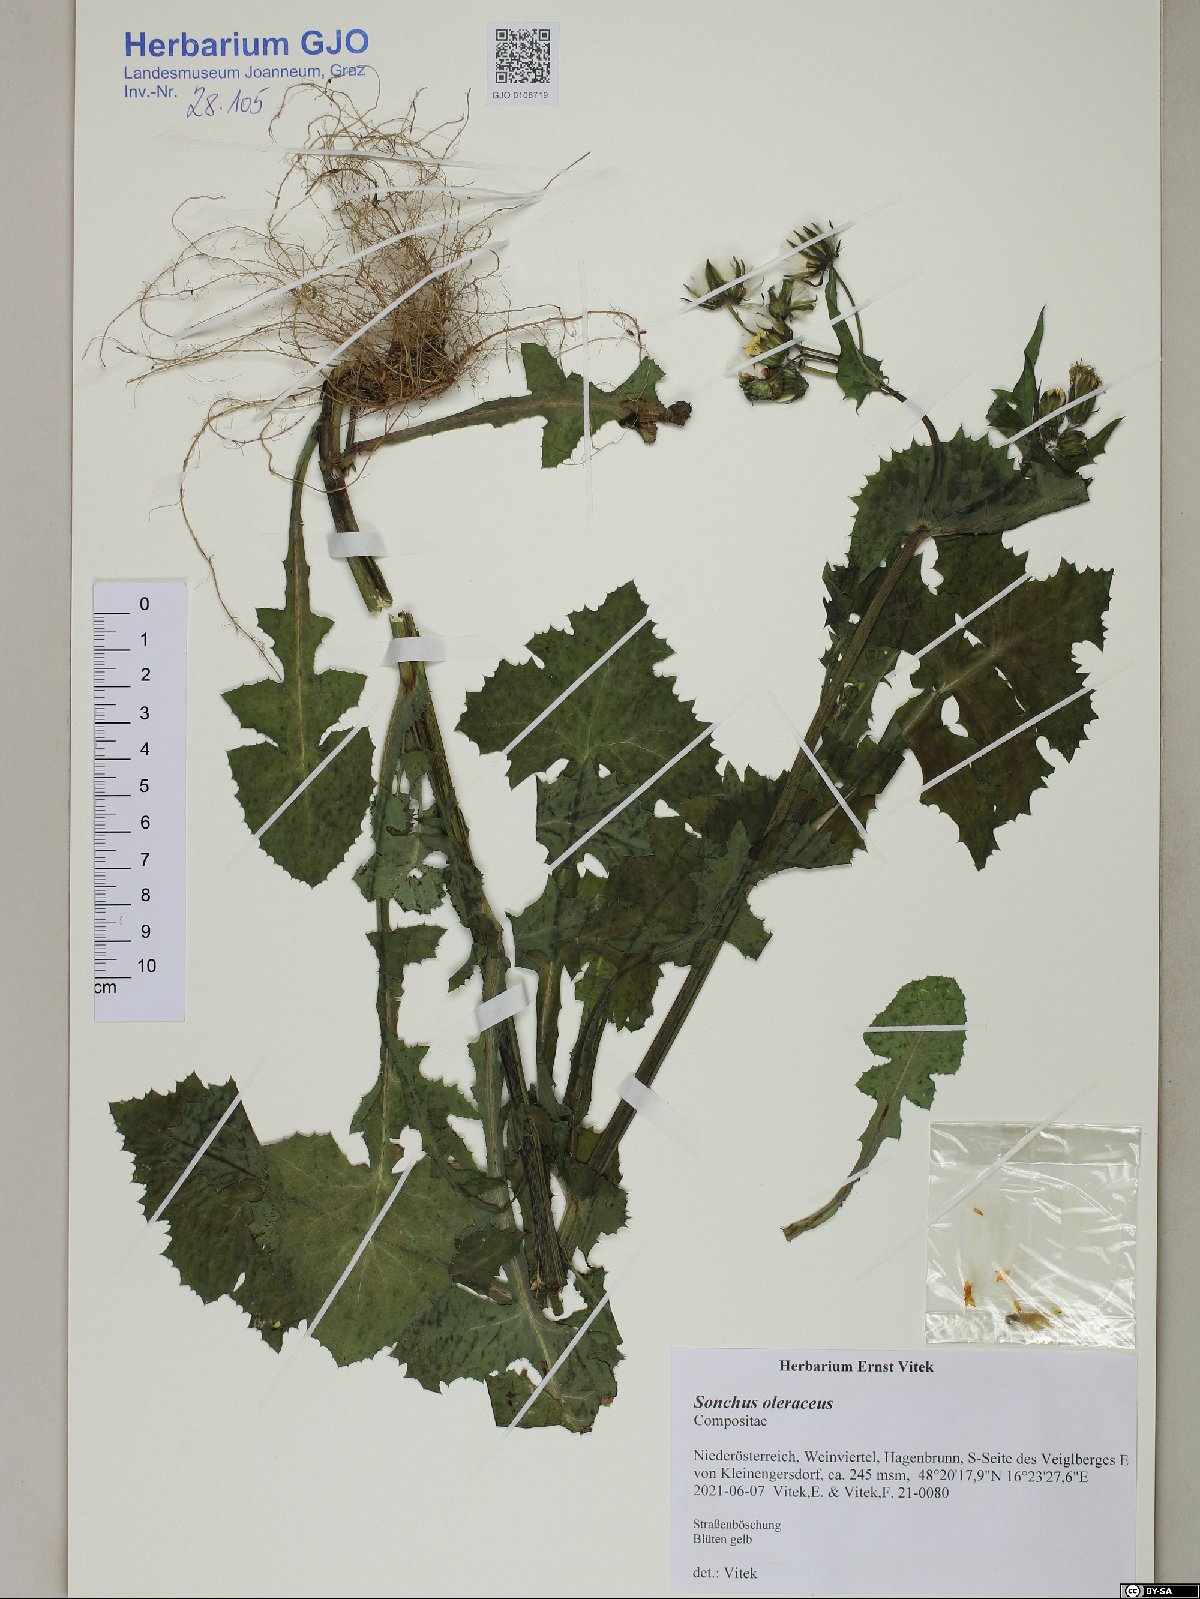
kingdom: Plantae
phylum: Tracheophyta
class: Magnoliopsida
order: Asterales
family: Asteraceae
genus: Sonchus
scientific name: Sonchus oleraceus
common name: Common sowthistle
